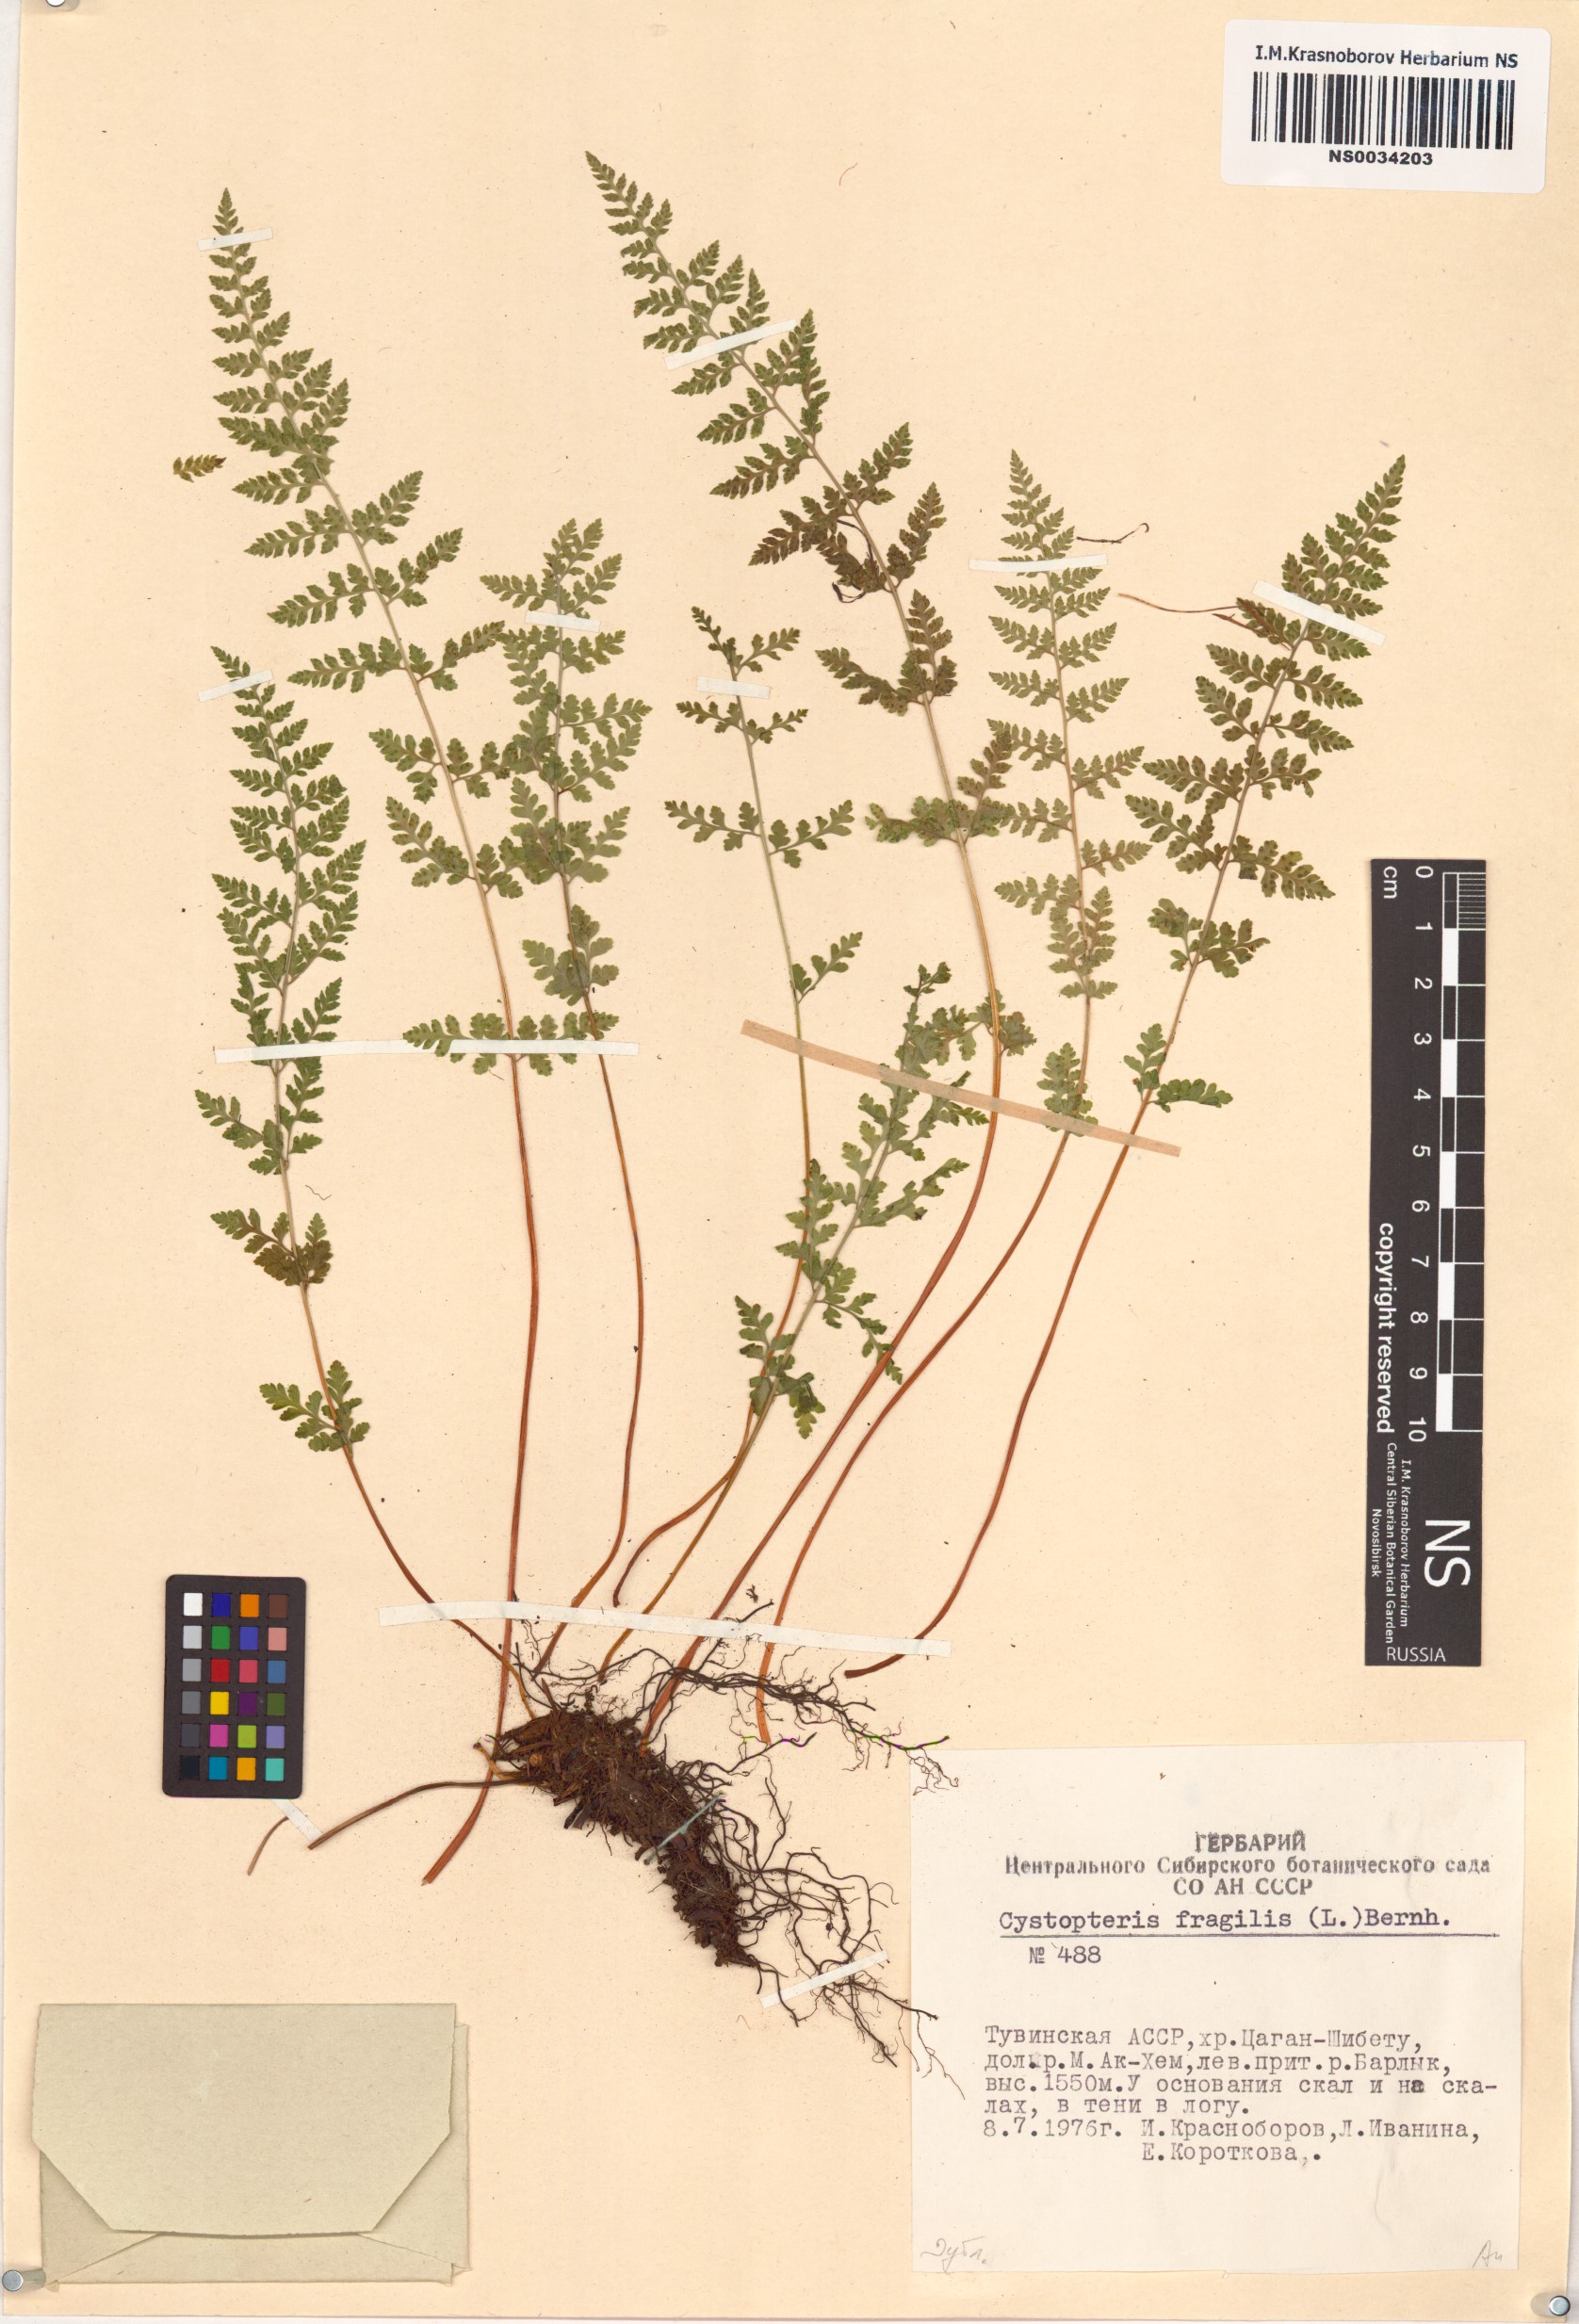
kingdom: Plantae
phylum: Tracheophyta
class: Polypodiopsida
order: Polypodiales
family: Cystopteridaceae
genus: Cystopteris
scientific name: Cystopteris fragilis
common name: Brittle bladder fern
